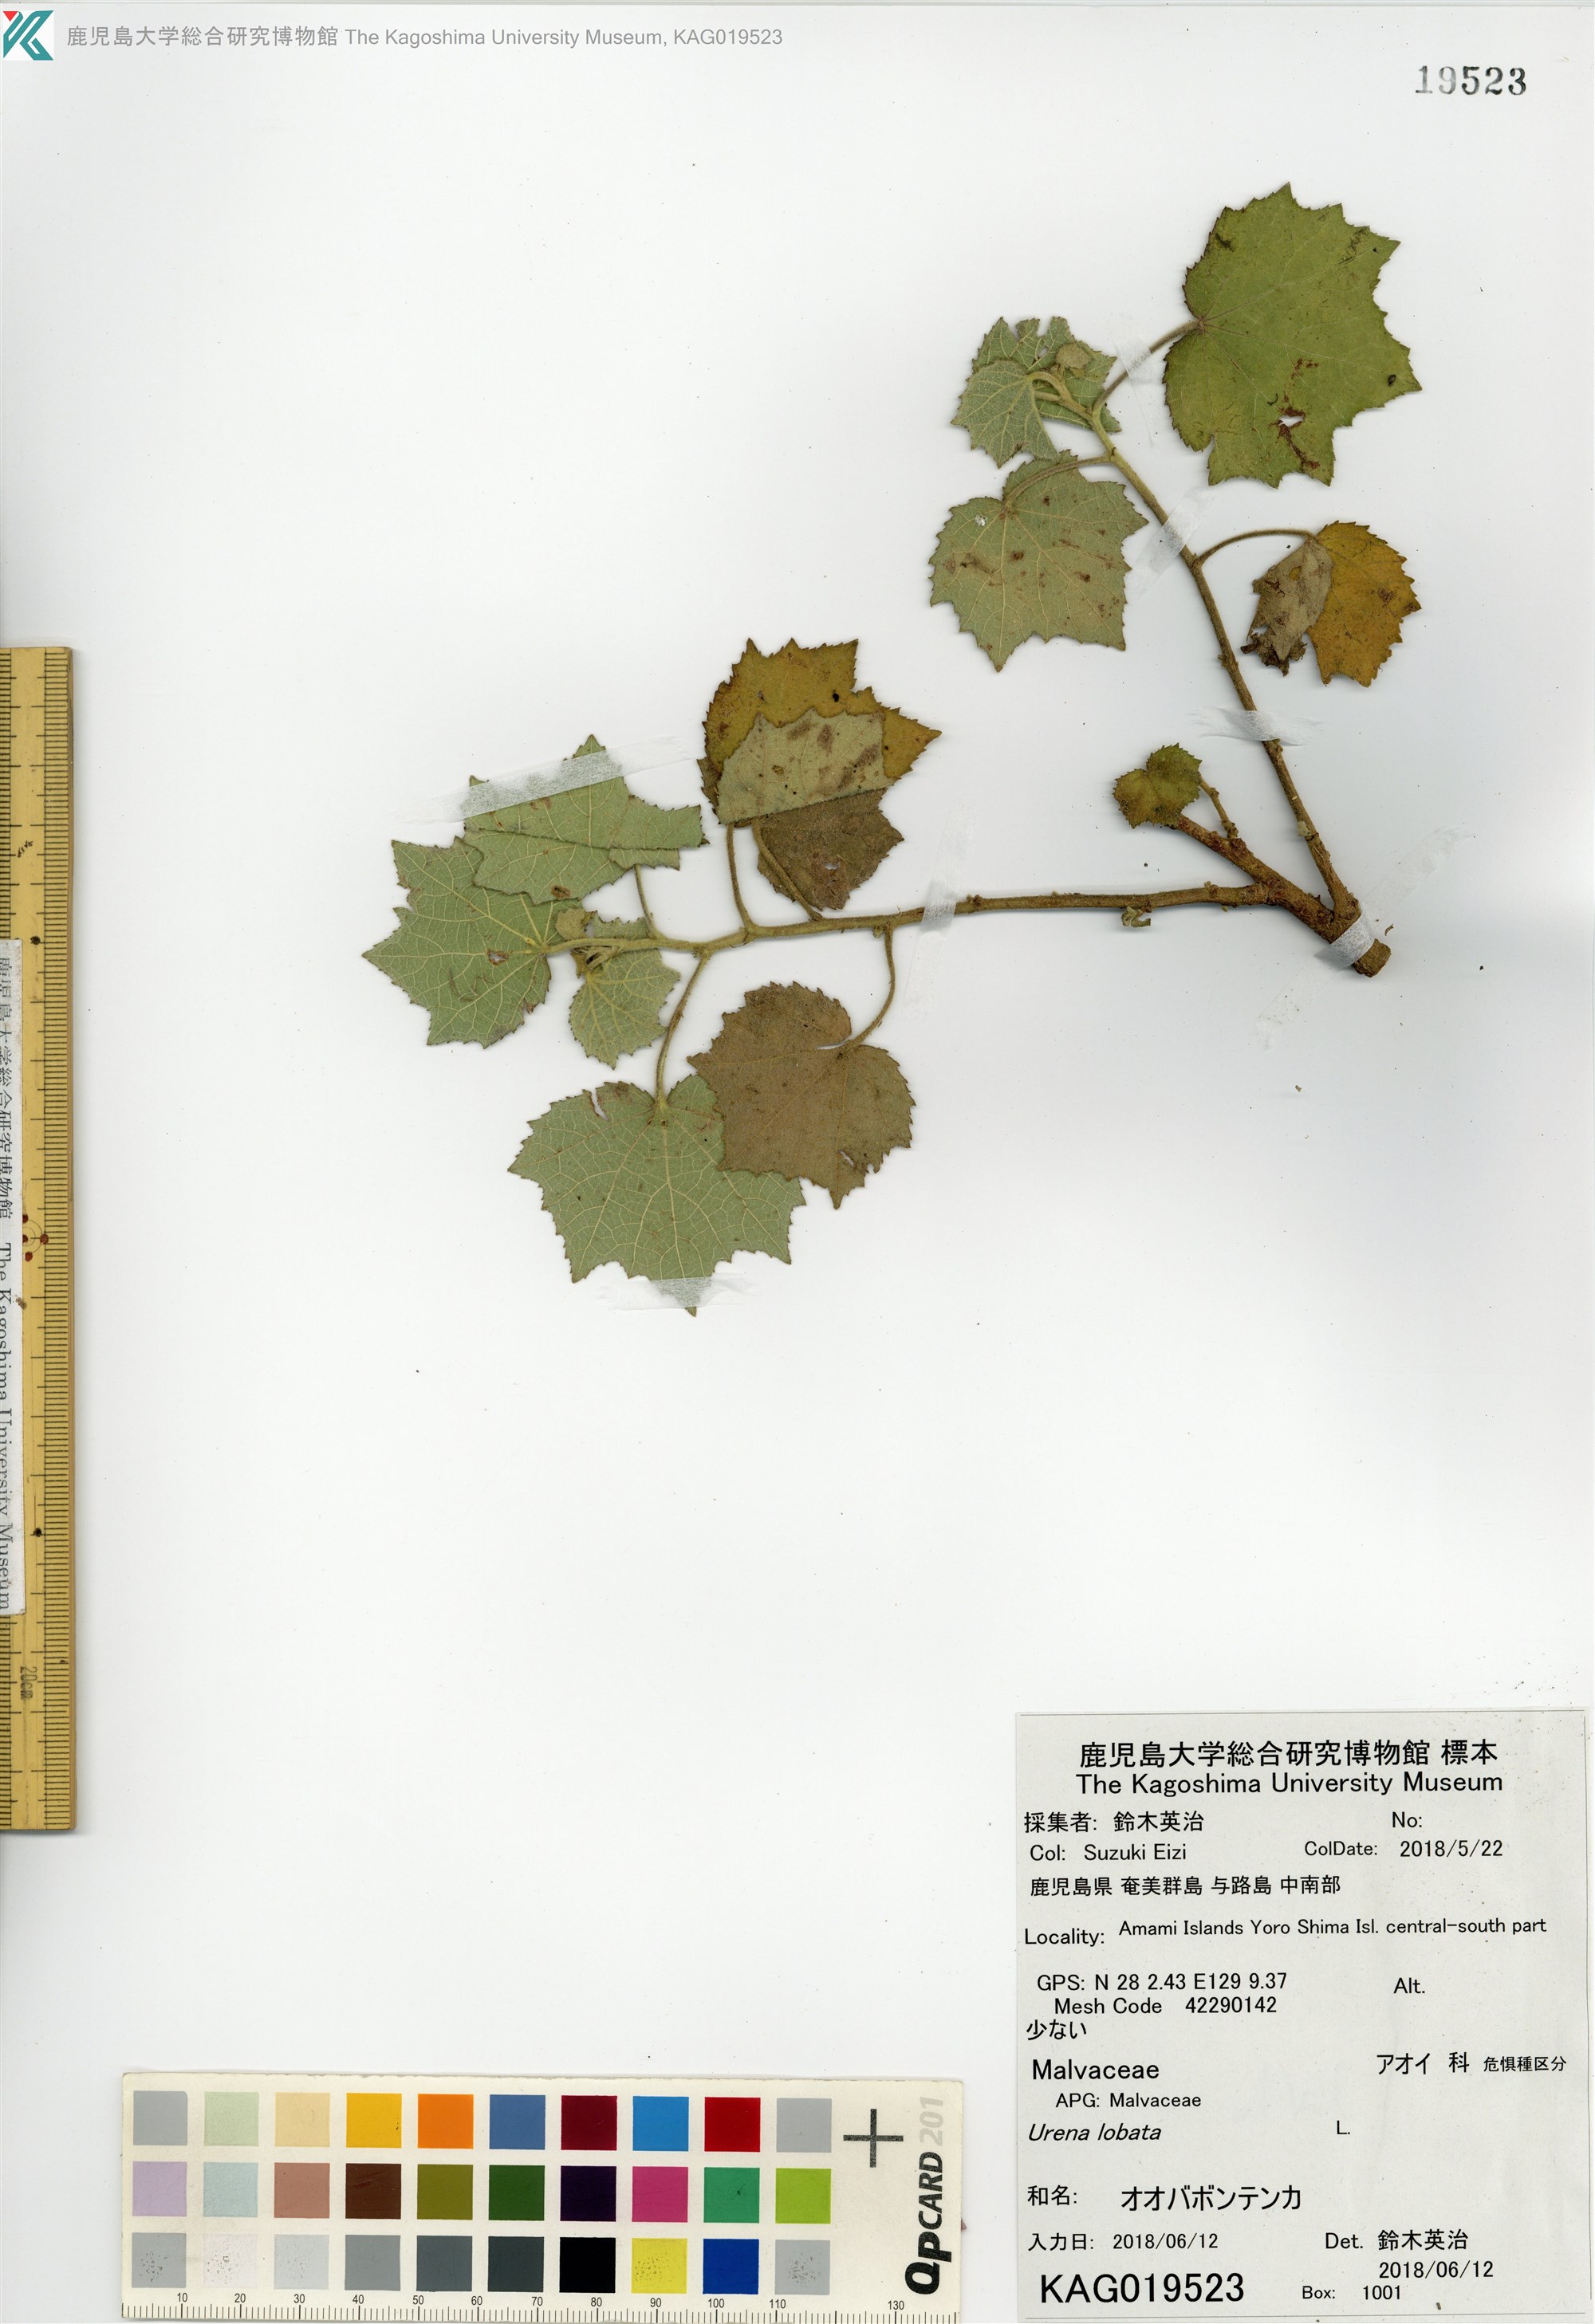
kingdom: Plantae
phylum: Tracheophyta
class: Magnoliopsida
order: Malvales
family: Malvaceae
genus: Urena
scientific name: Urena lobata
